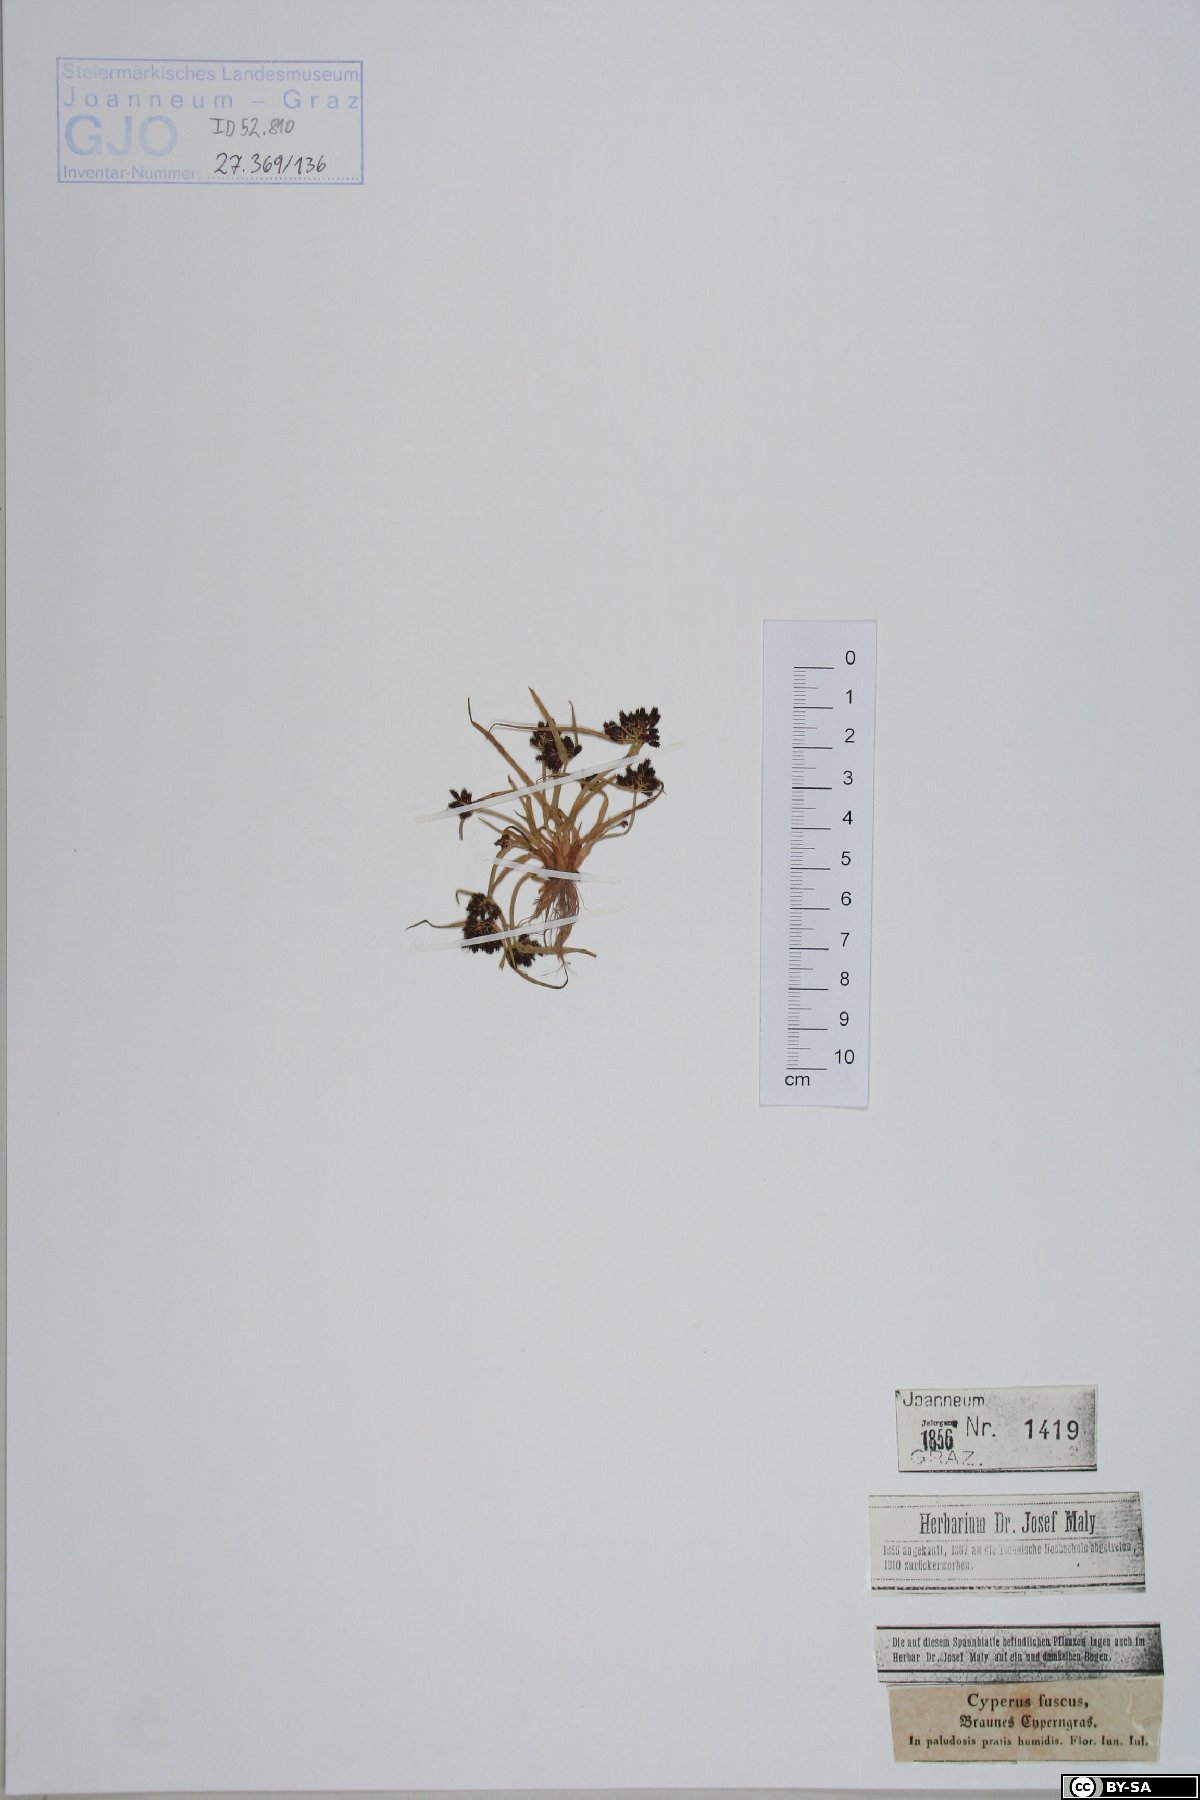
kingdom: Plantae
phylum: Tracheophyta
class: Liliopsida
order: Poales
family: Cyperaceae
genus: Cyperus
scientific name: Cyperus fuscus
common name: Brown galingale
